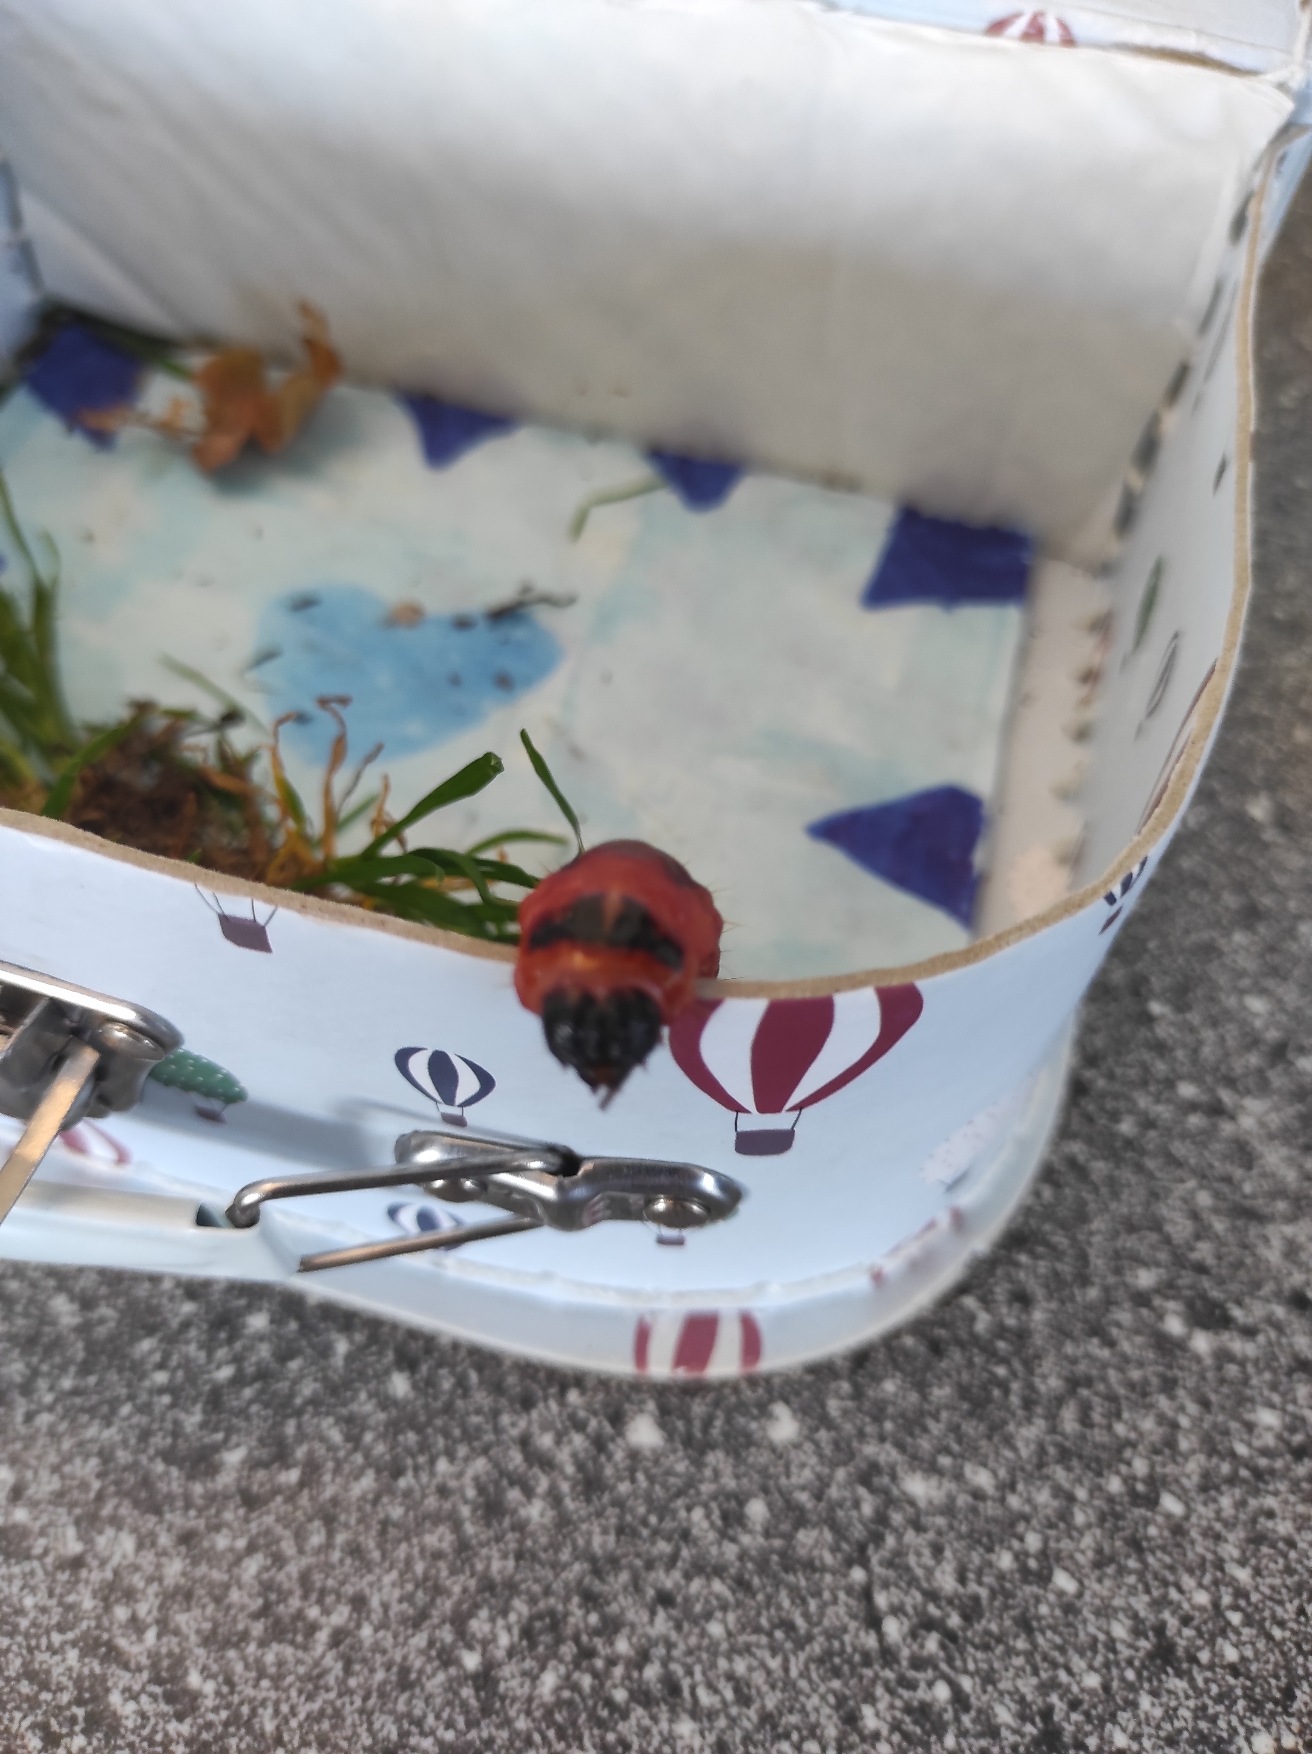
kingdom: Animalia
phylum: Arthropoda
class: Insecta
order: Lepidoptera
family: Cossidae
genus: Cossus
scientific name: Cossus cossus
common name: Pileborer
